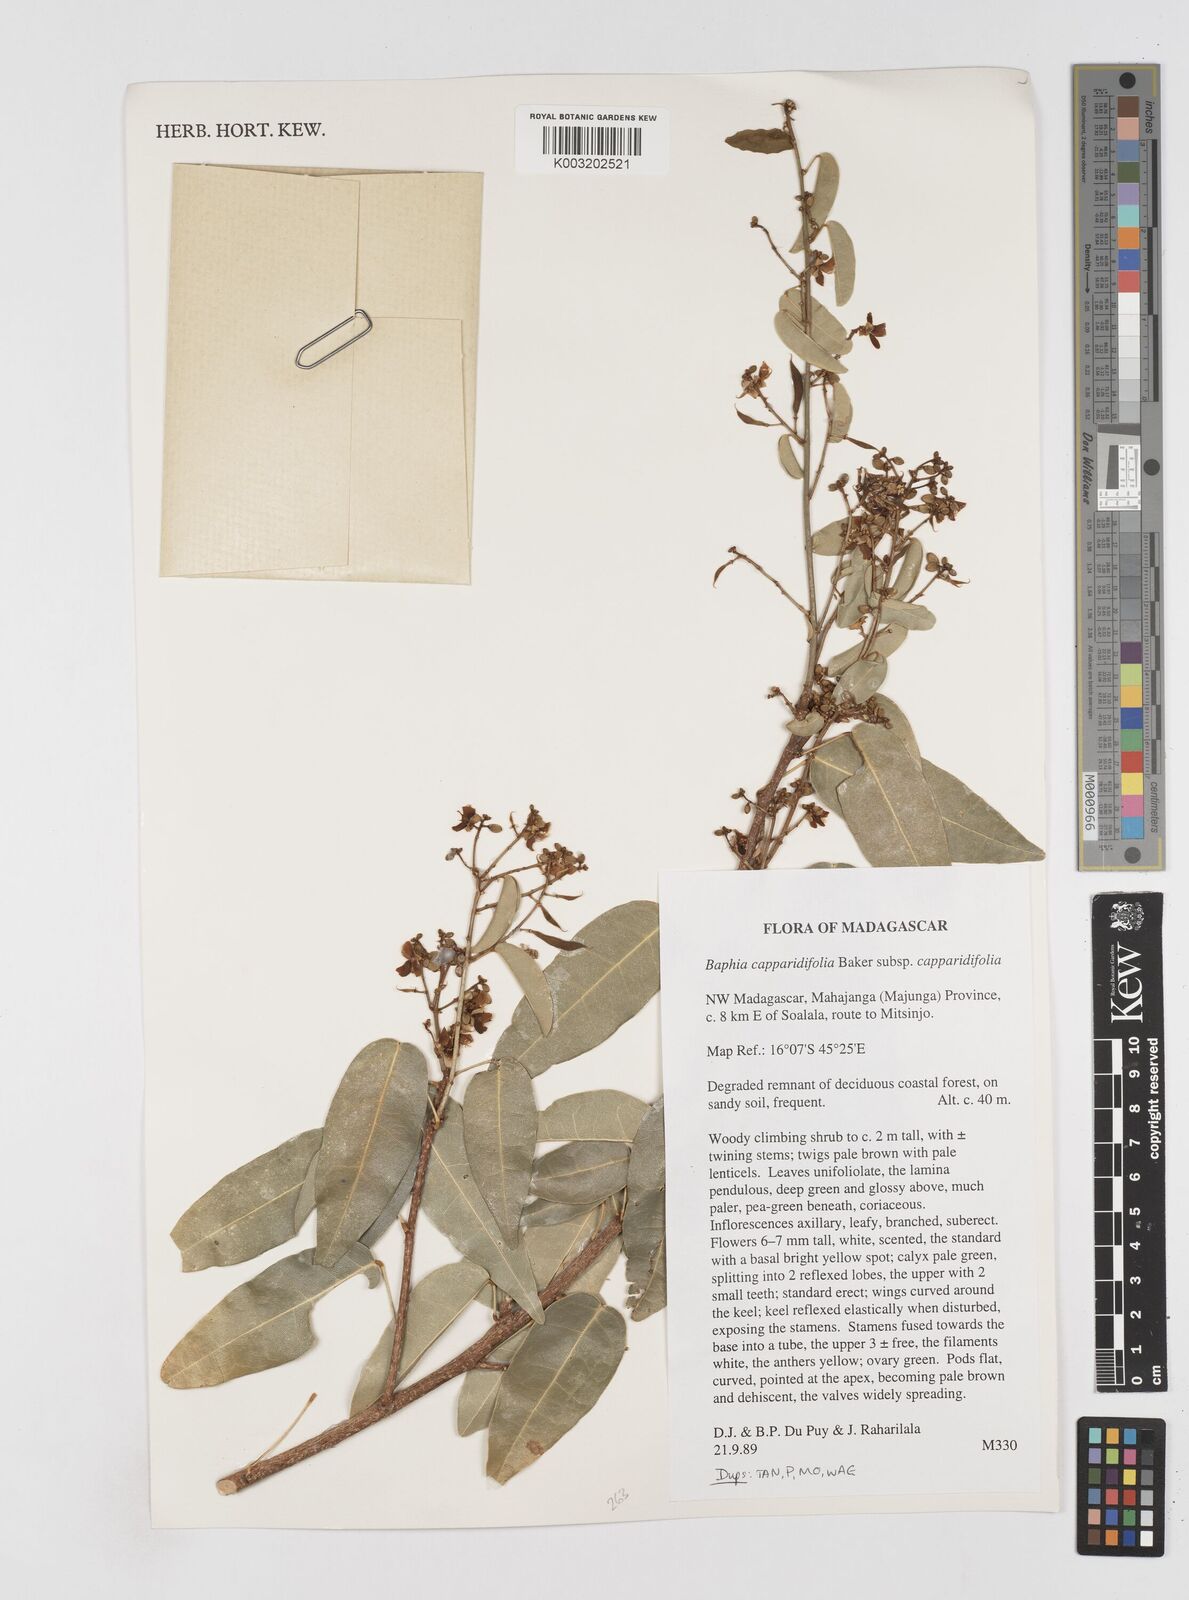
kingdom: Plantae
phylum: Tracheophyta
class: Magnoliopsida
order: Fabales
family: Fabaceae
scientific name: Fabaceae
